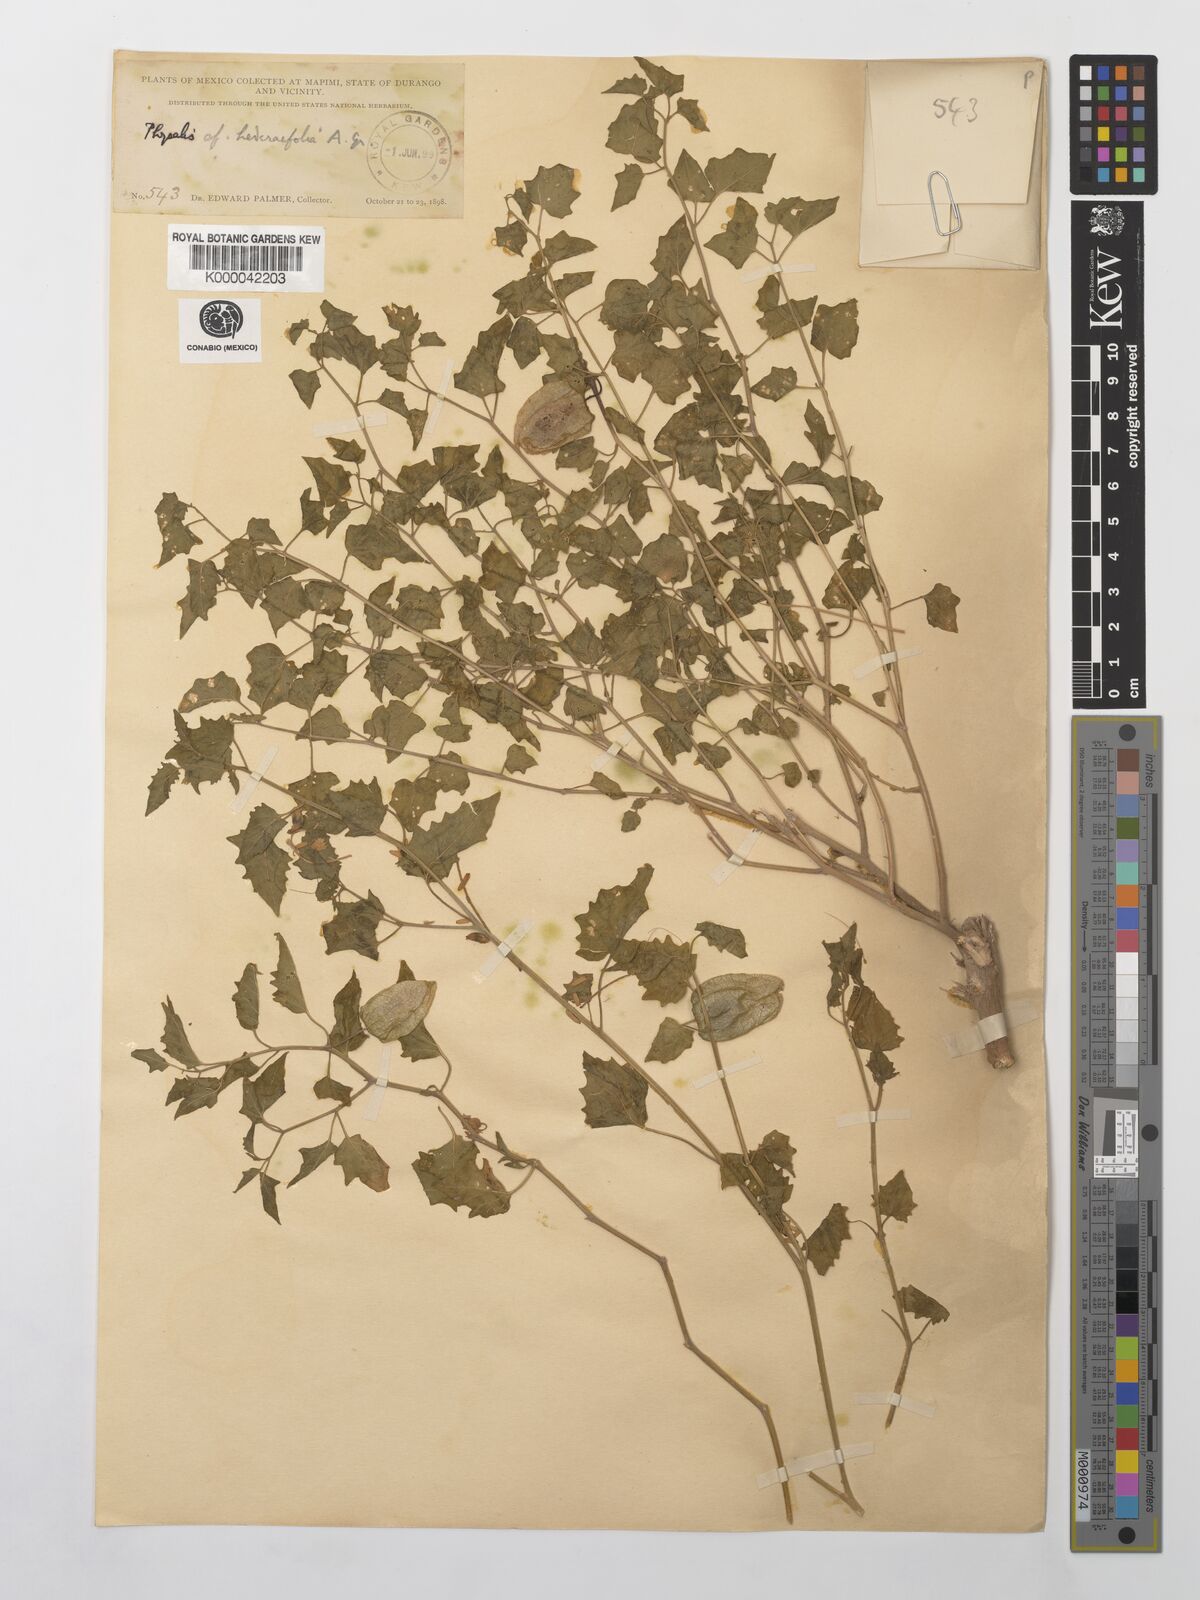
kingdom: Plantae
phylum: Tracheophyta
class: Magnoliopsida
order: Solanales
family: Solanaceae
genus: Physalis
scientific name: Physalis hederifolia
